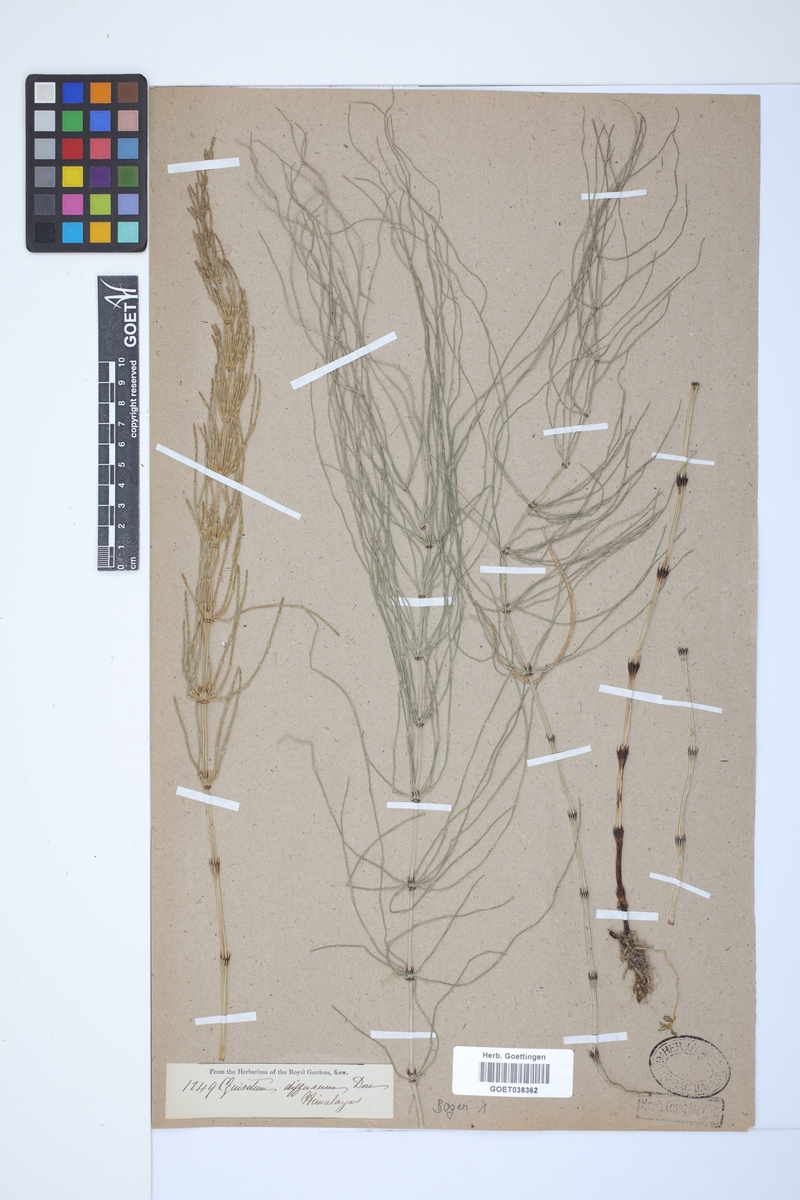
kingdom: Plantae
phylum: Tracheophyta
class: Polypodiopsida
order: Equisetales
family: Equisetaceae
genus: Equisetum
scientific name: Equisetum arvense
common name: Field horsetail
